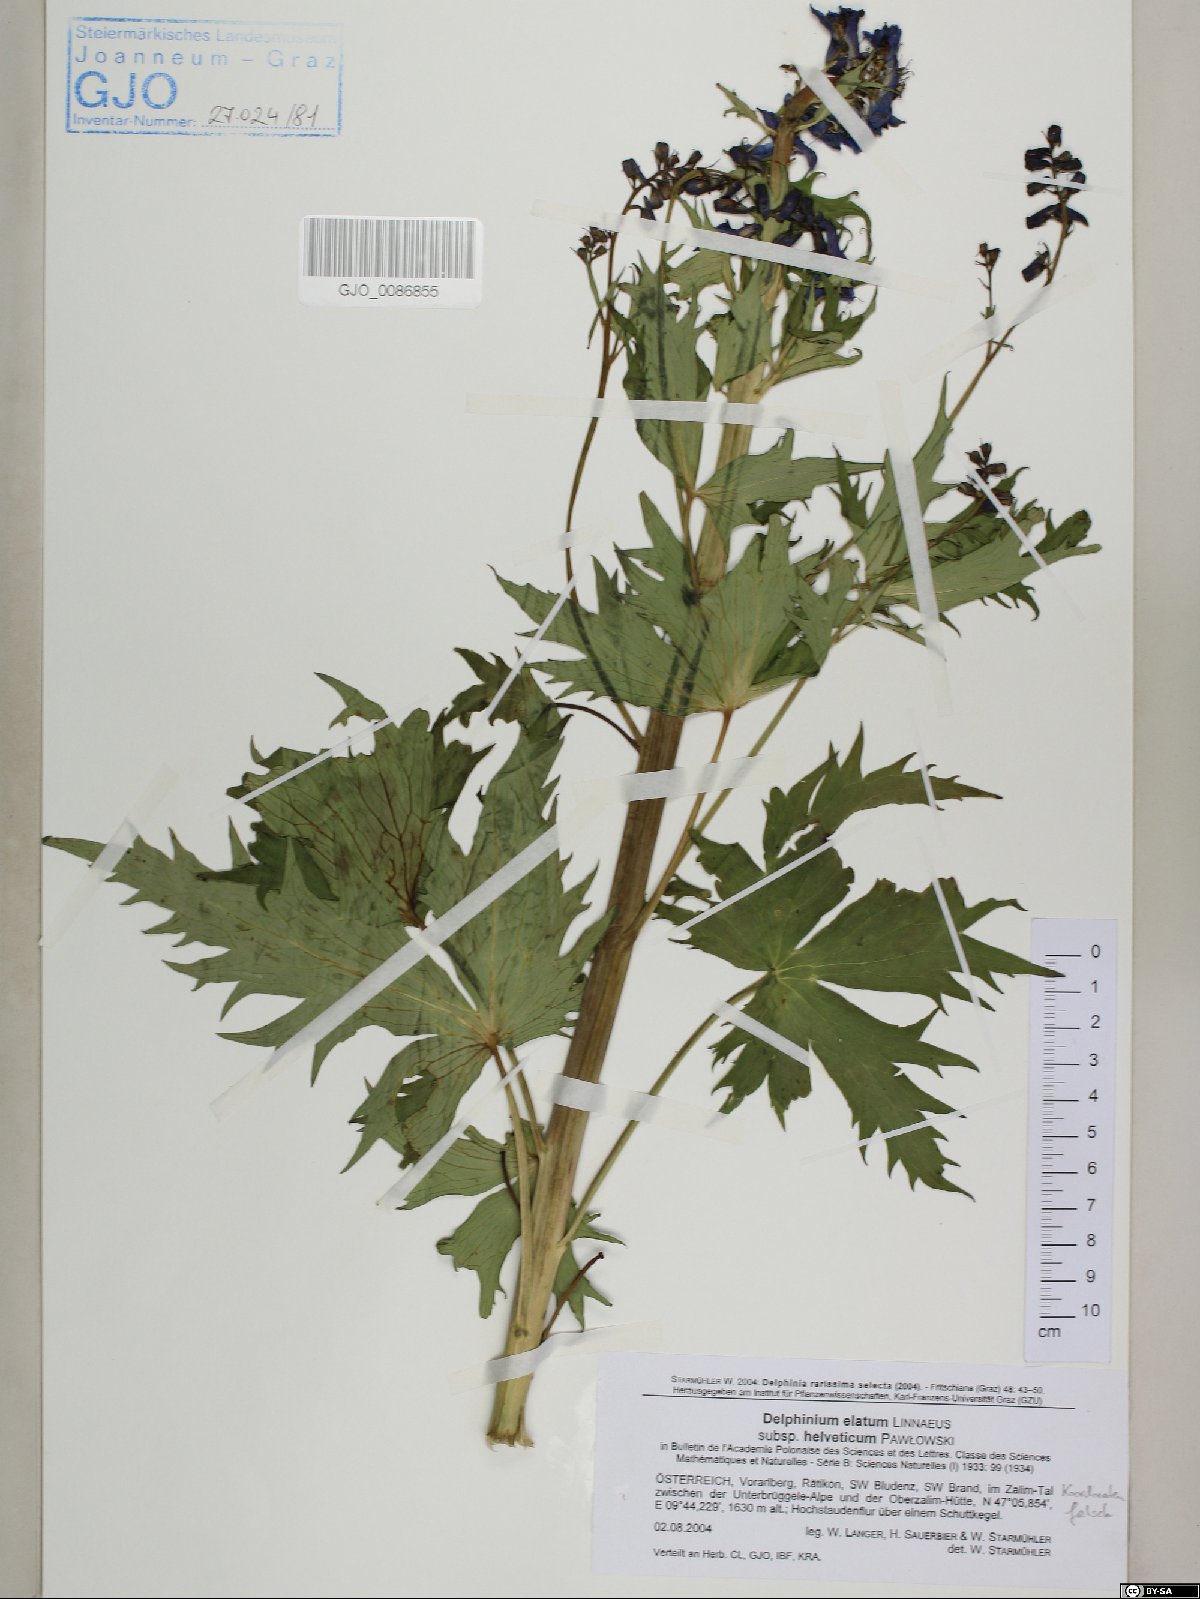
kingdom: Plantae
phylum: Tracheophyta
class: Magnoliopsida
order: Ranunculales
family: Ranunculaceae
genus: Delphinium
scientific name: Delphinium elatum
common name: Candle larkspur
